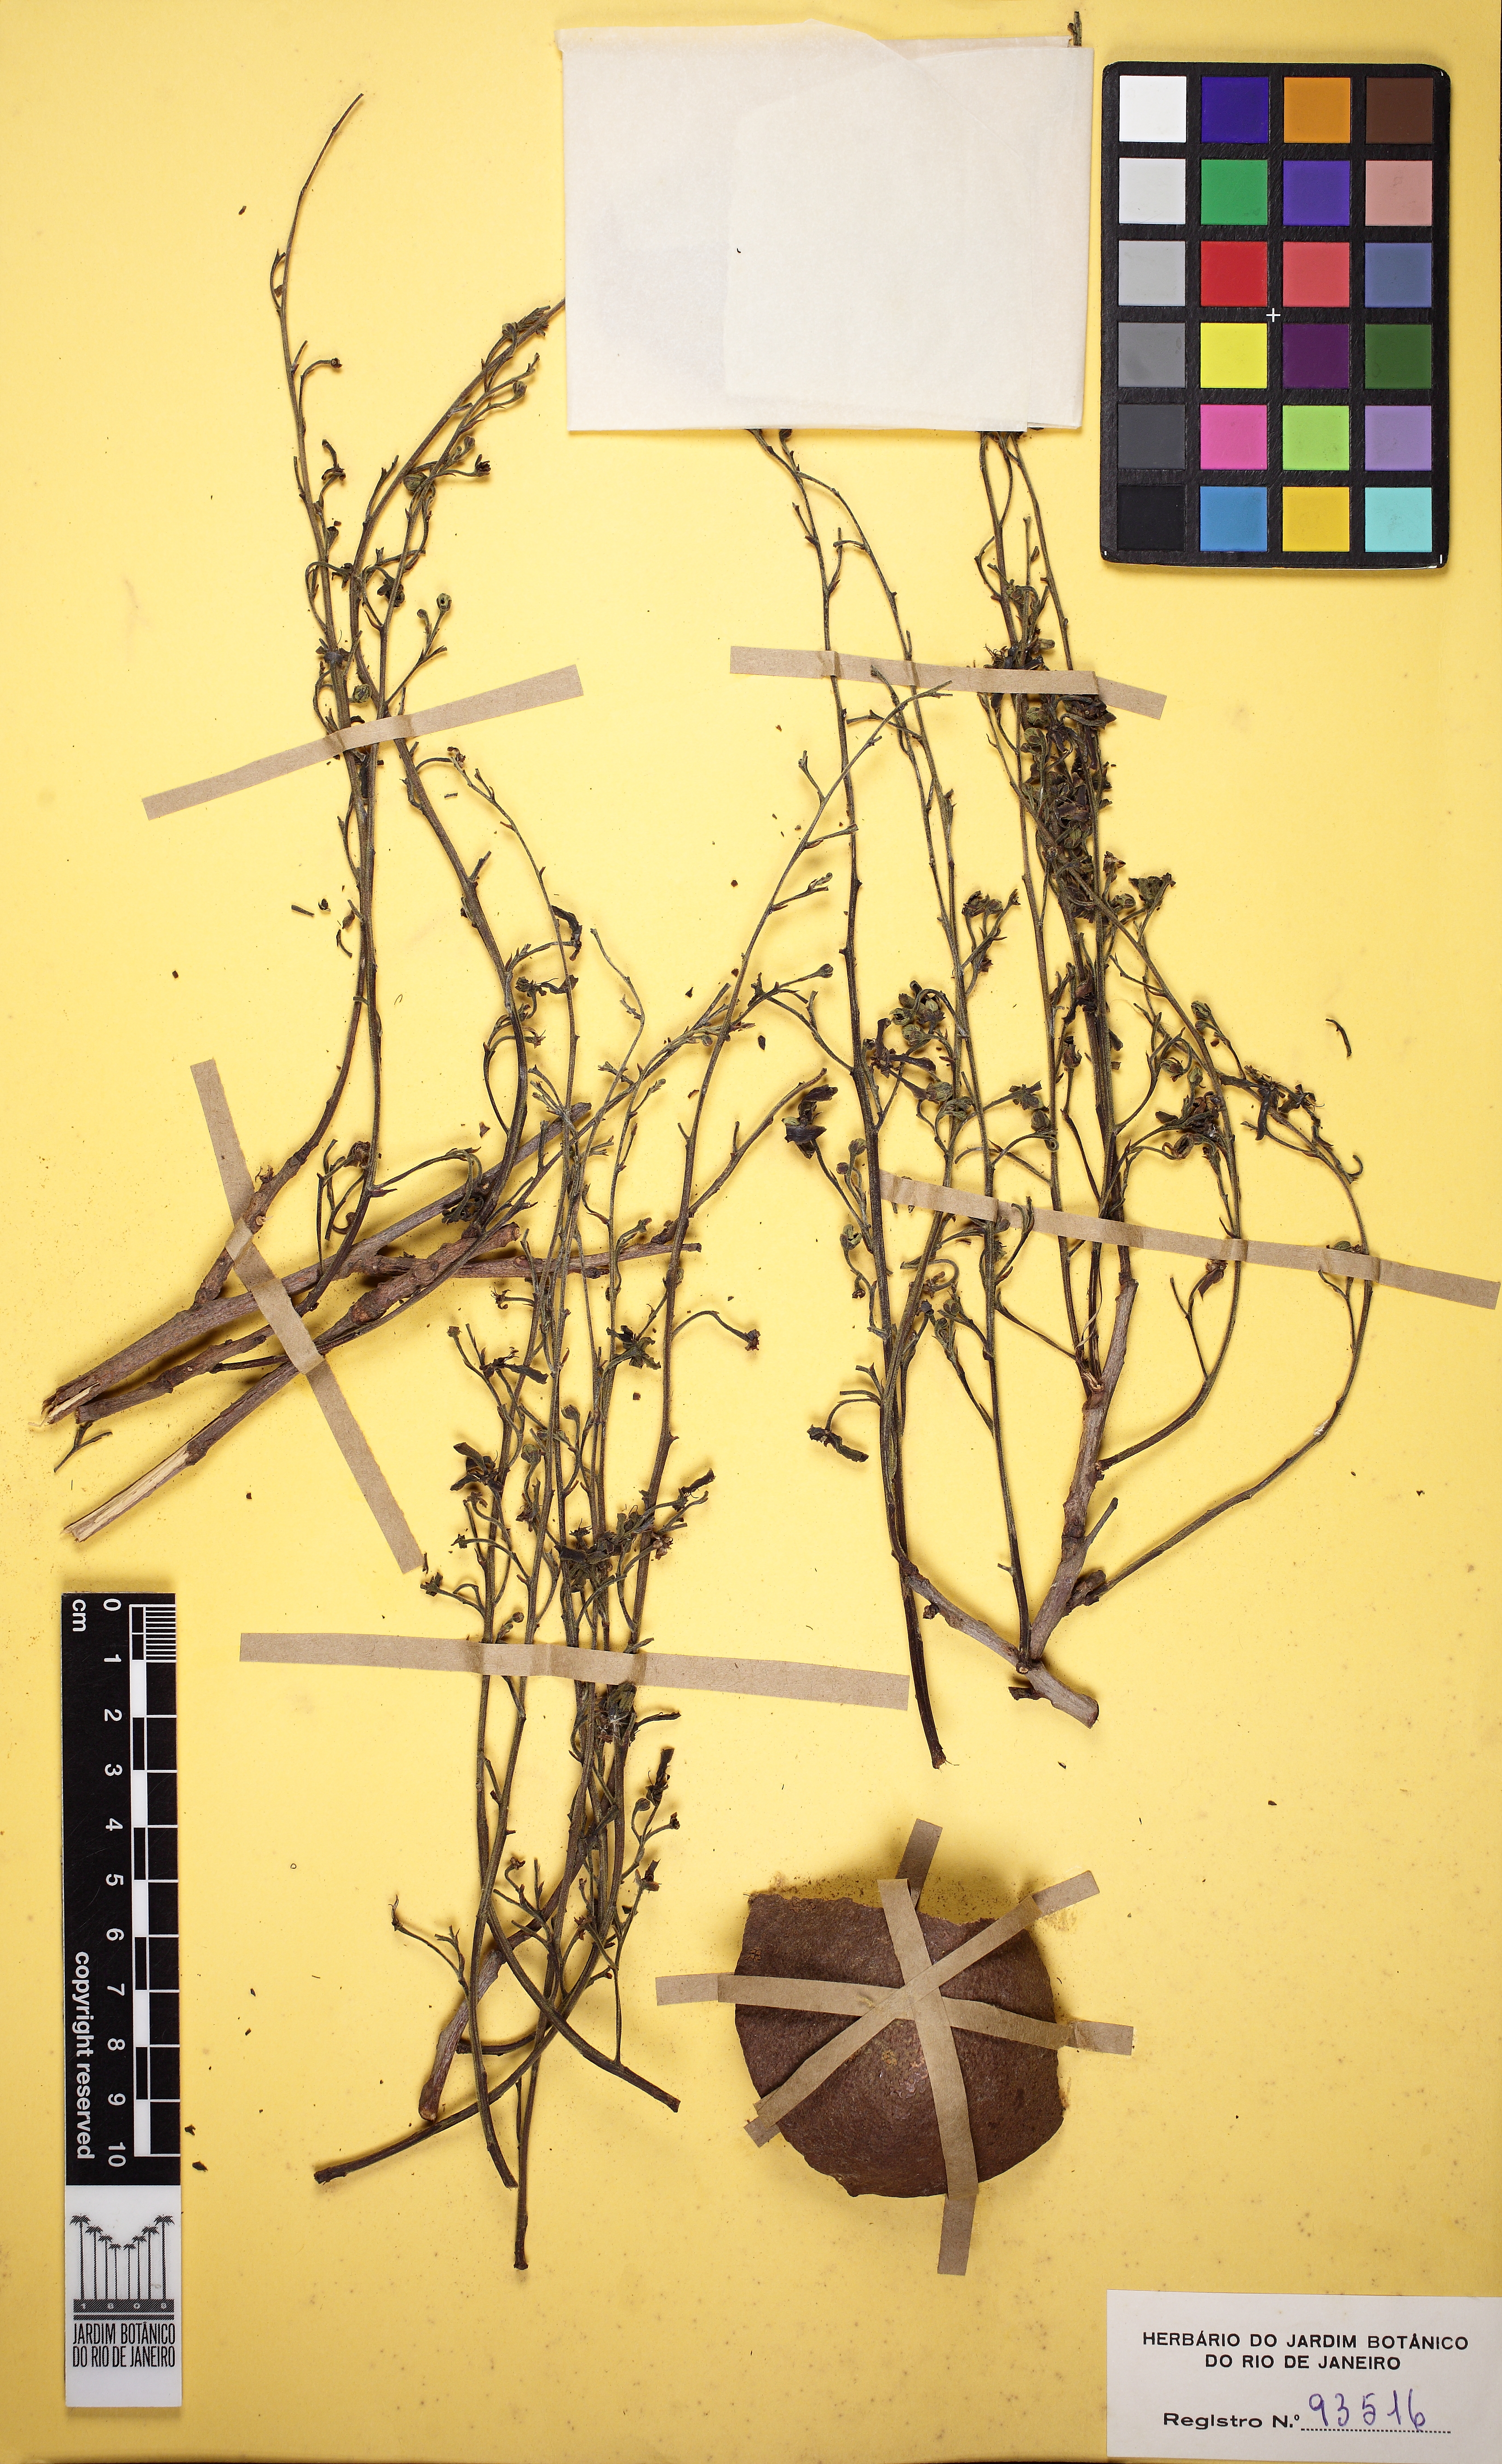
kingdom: Plantae
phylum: Tracheophyta
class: Magnoliopsida
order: Sapindales
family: Sapindaceae
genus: Magonia
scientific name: Magonia pubescens
